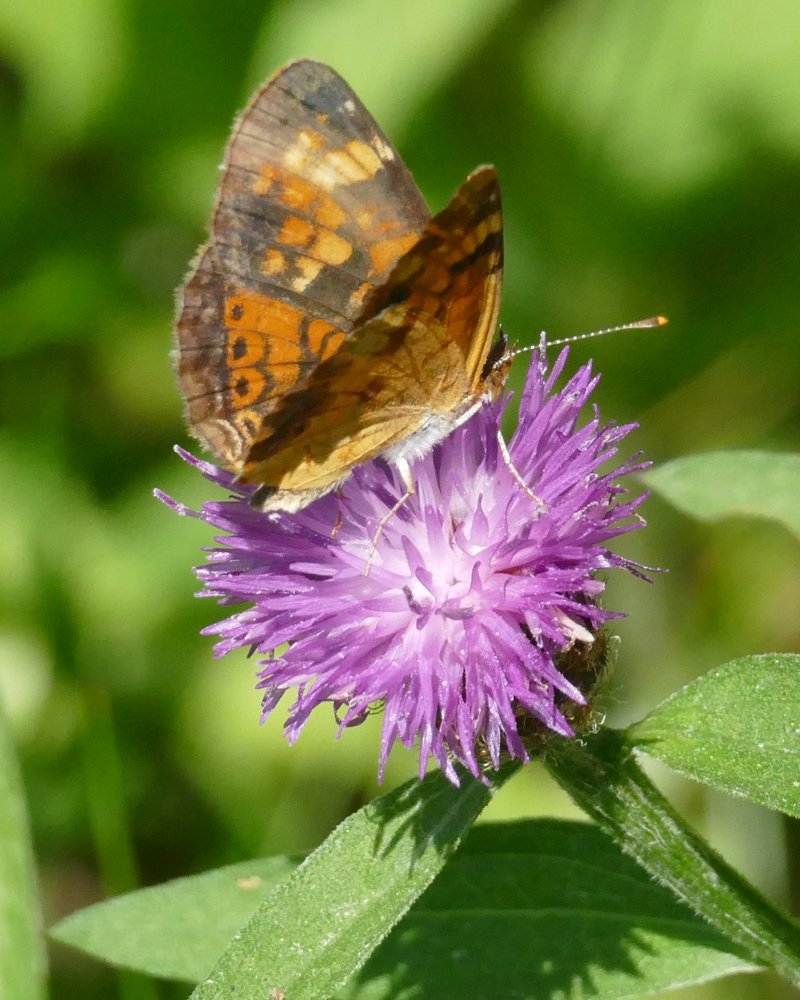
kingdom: Animalia
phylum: Arthropoda
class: Insecta
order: Lepidoptera
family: Nymphalidae
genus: Phyciodes
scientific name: Phyciodes tharos
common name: Northern Crescent
